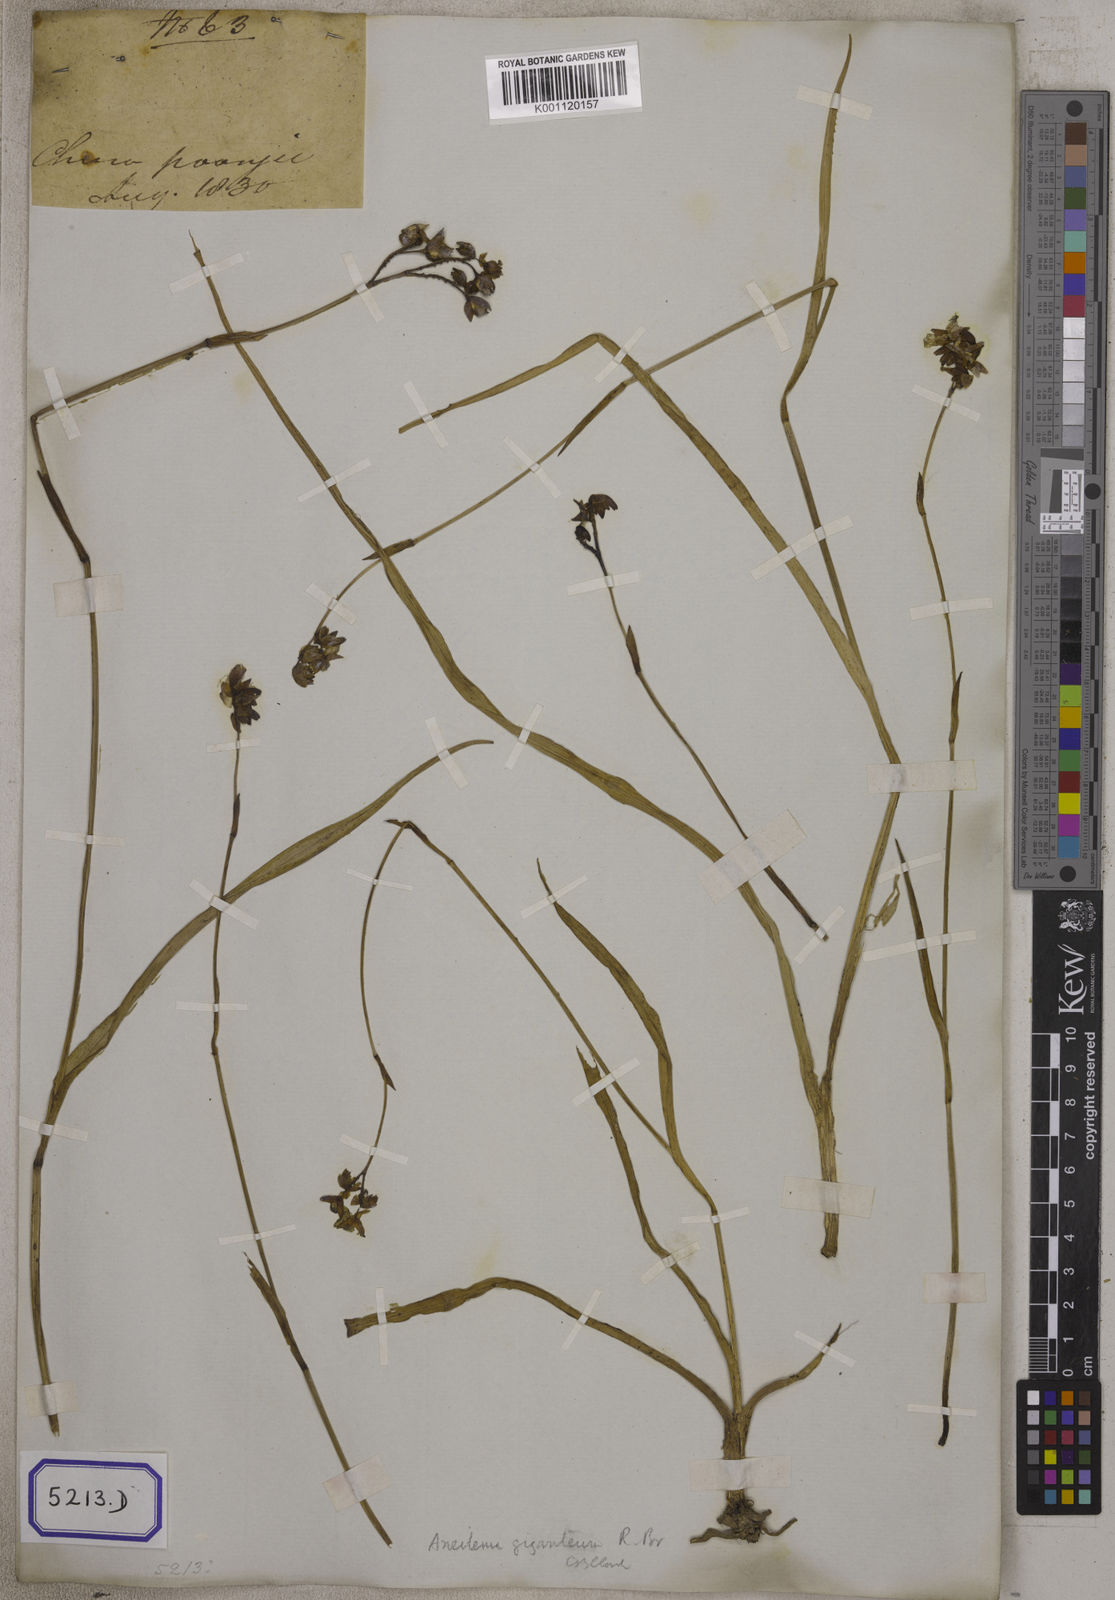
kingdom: Plantae
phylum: Tracheophyta
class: Liliopsida
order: Commelinales
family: Commelinaceae
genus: Aneilema
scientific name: Aneilema
